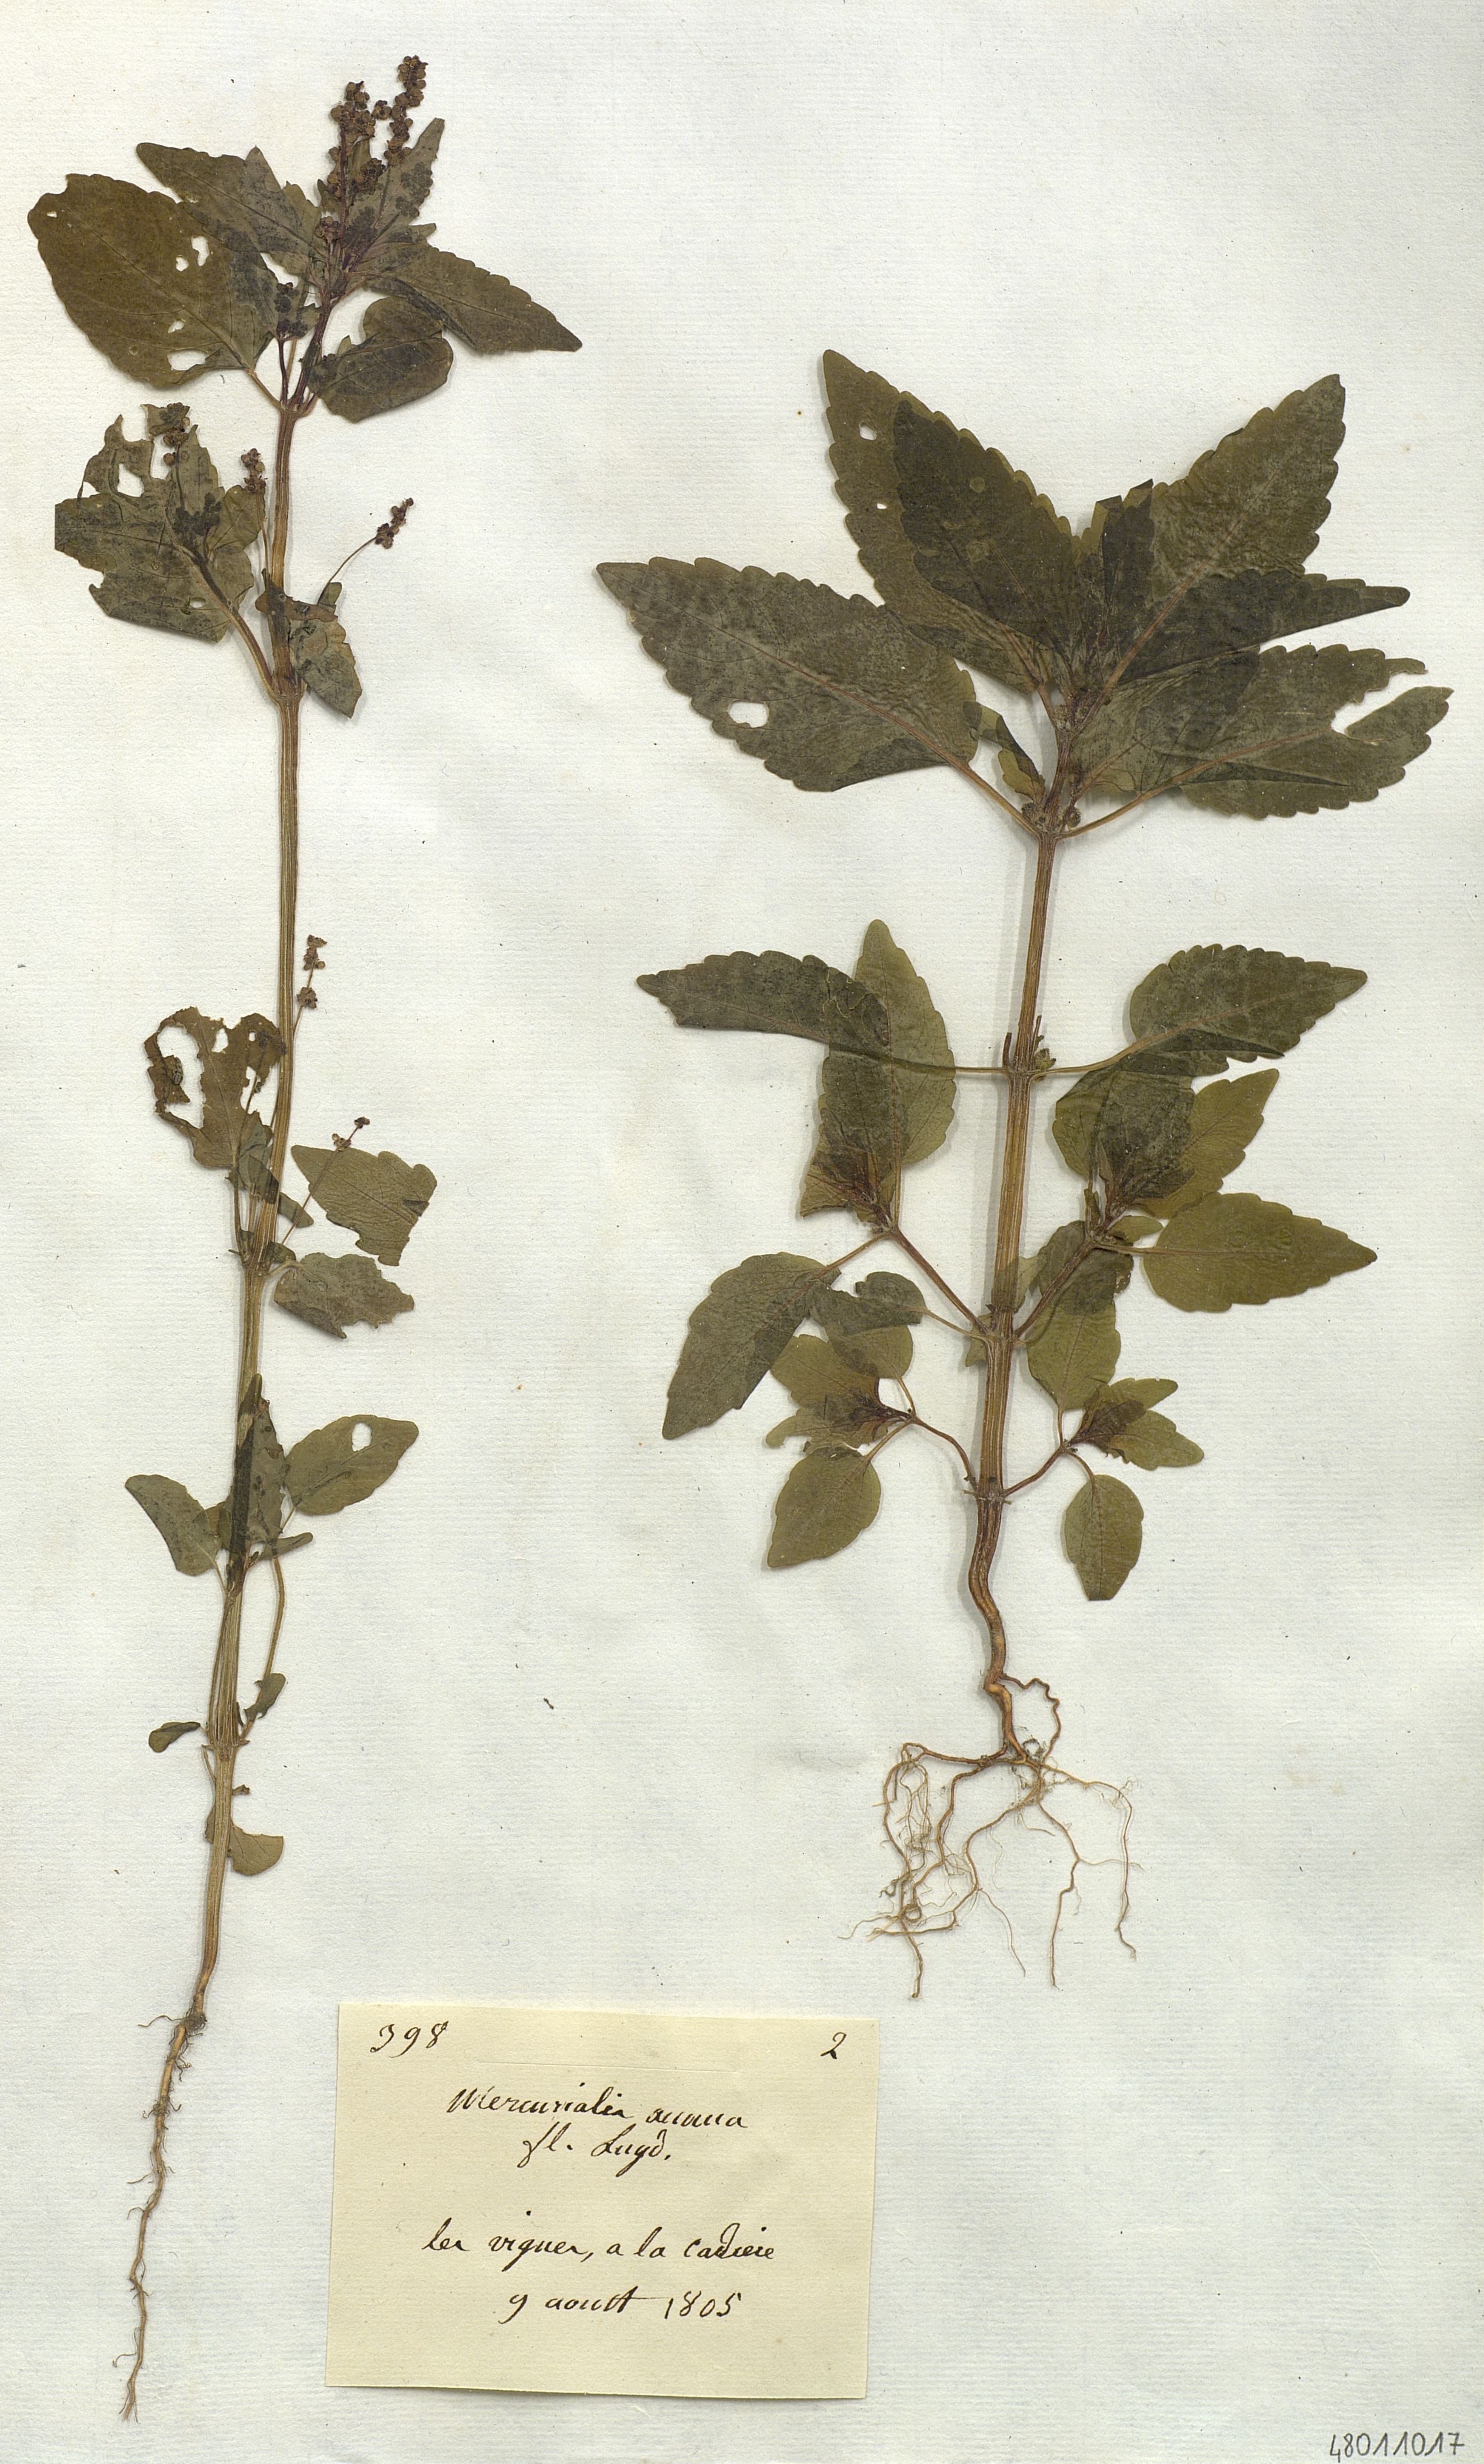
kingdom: Plantae
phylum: Tracheophyta
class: Magnoliopsida
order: Malpighiales
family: Euphorbiaceae
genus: Mercurialis
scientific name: Mercurialis annua
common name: Annual mercury
